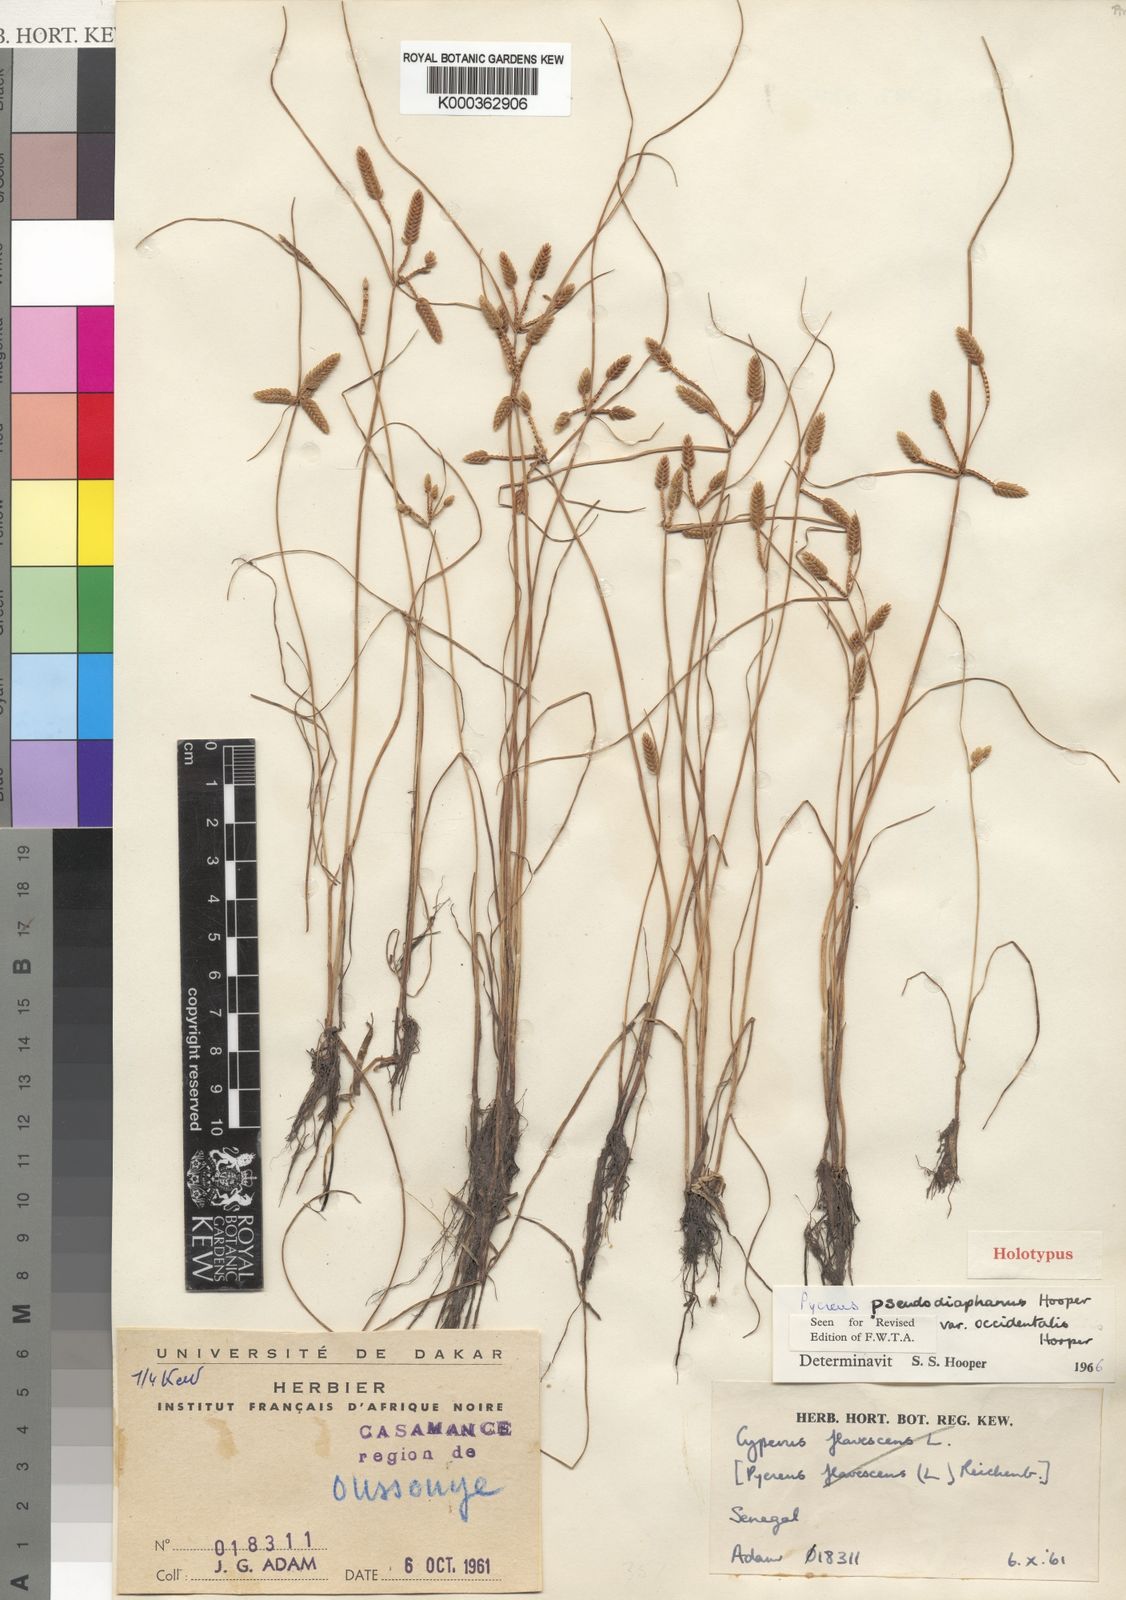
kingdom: Plantae
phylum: Tracheophyta
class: Liliopsida
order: Poales
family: Cyperaceae
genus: Cyperus
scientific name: Cyperus pseudodiaphanus
